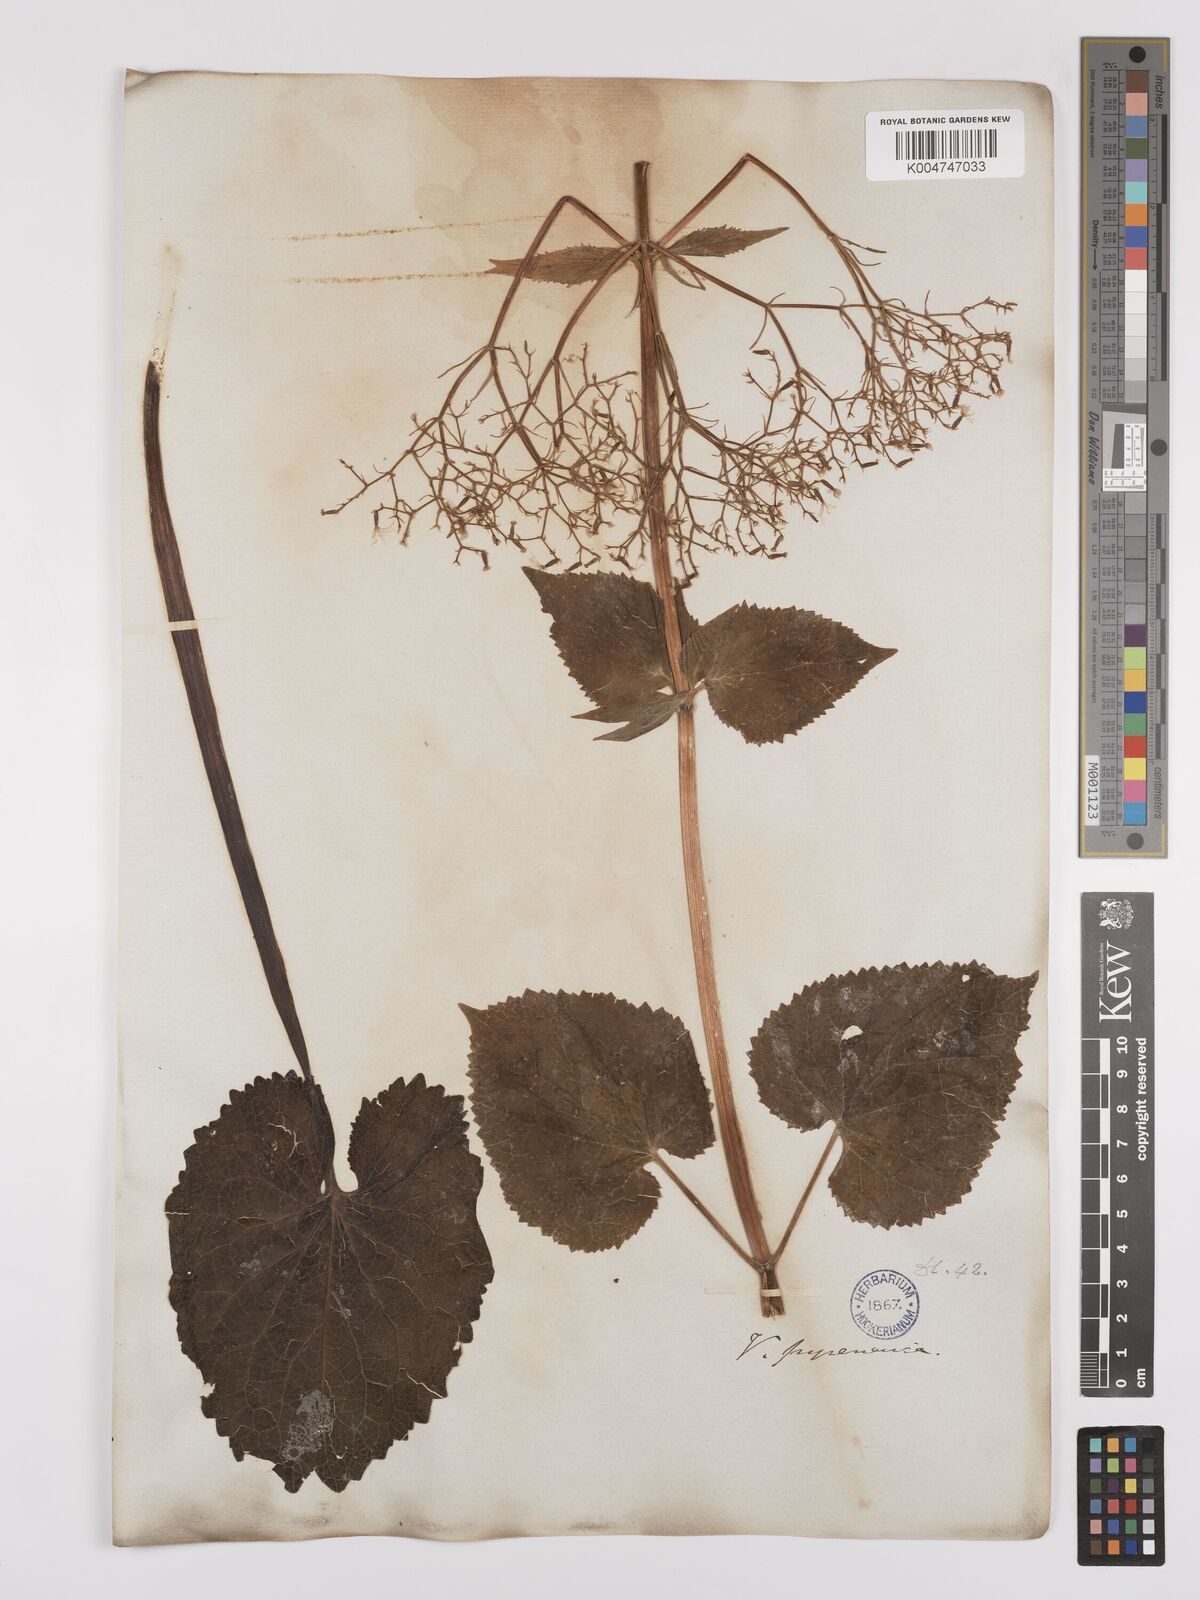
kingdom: Plantae
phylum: Tracheophyta
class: Magnoliopsida
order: Dipsacales
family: Caprifoliaceae
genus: Valeriana
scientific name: Valeriana pyrenaica
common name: Pyrenean valerian
